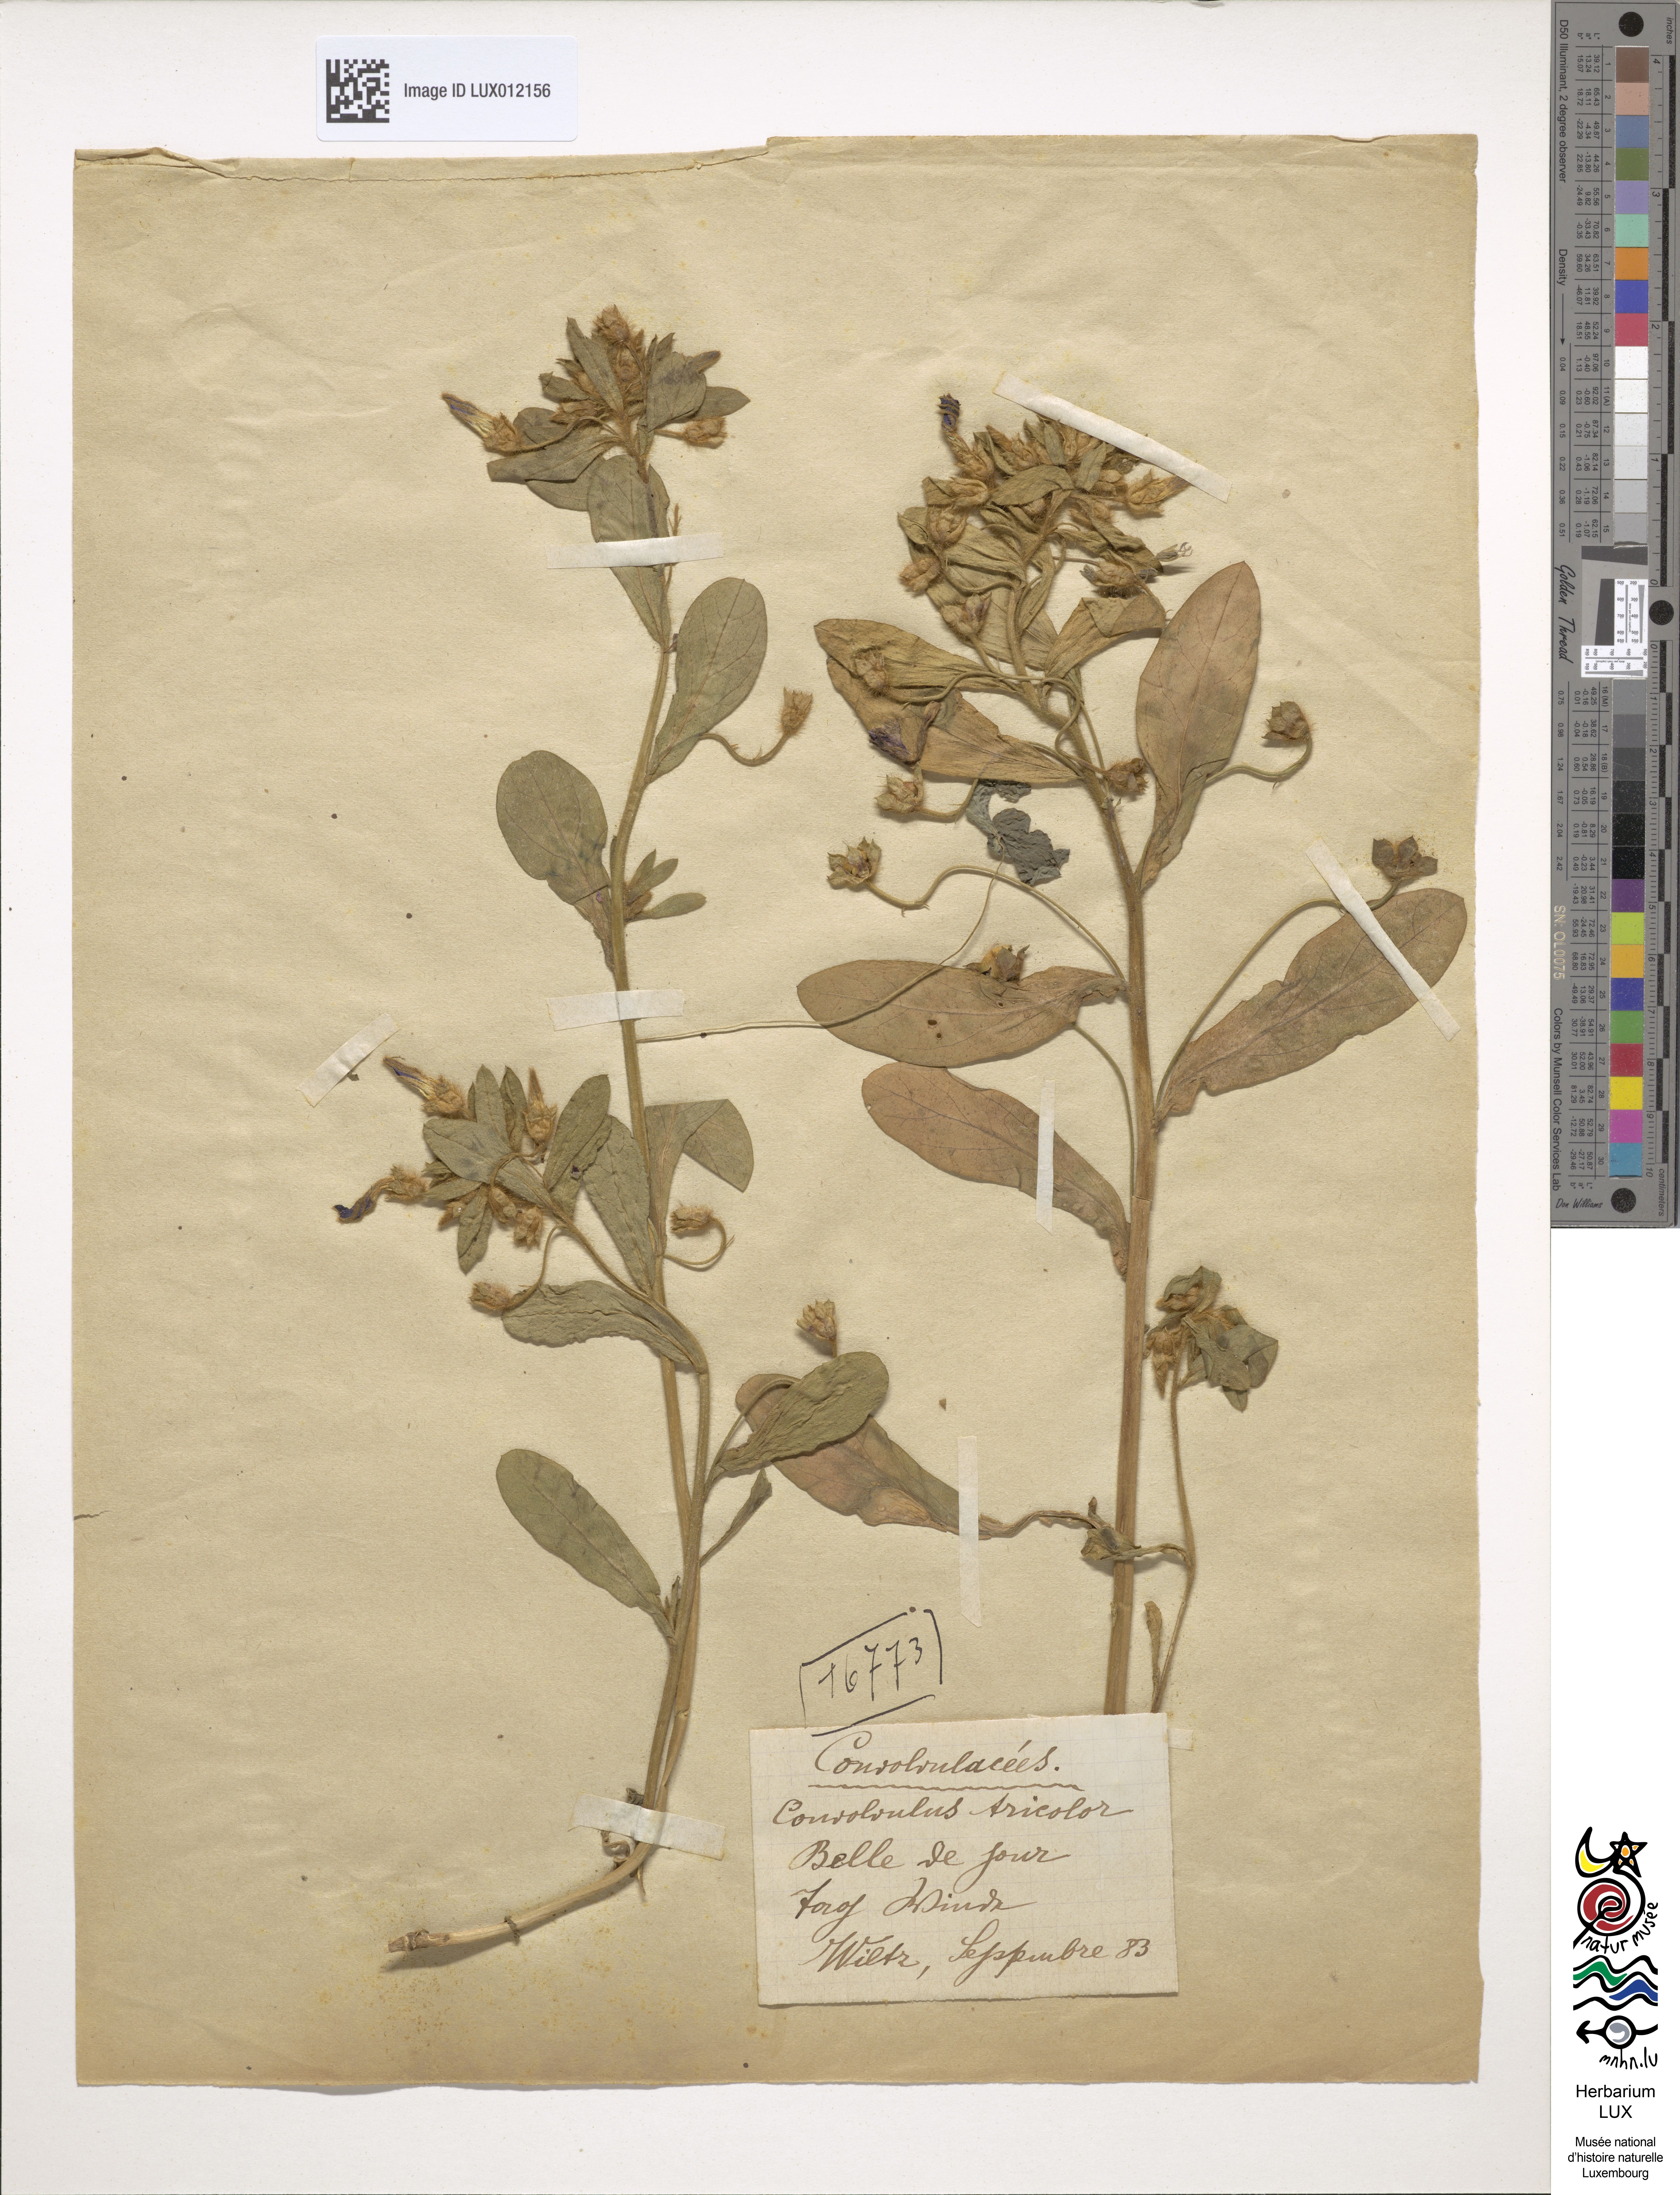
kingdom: Plantae
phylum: Tracheophyta
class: Magnoliopsida
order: Solanales
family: Convolvulaceae
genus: Convolvulus
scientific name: Convolvulus tricolor
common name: Dwarf morning-glory
